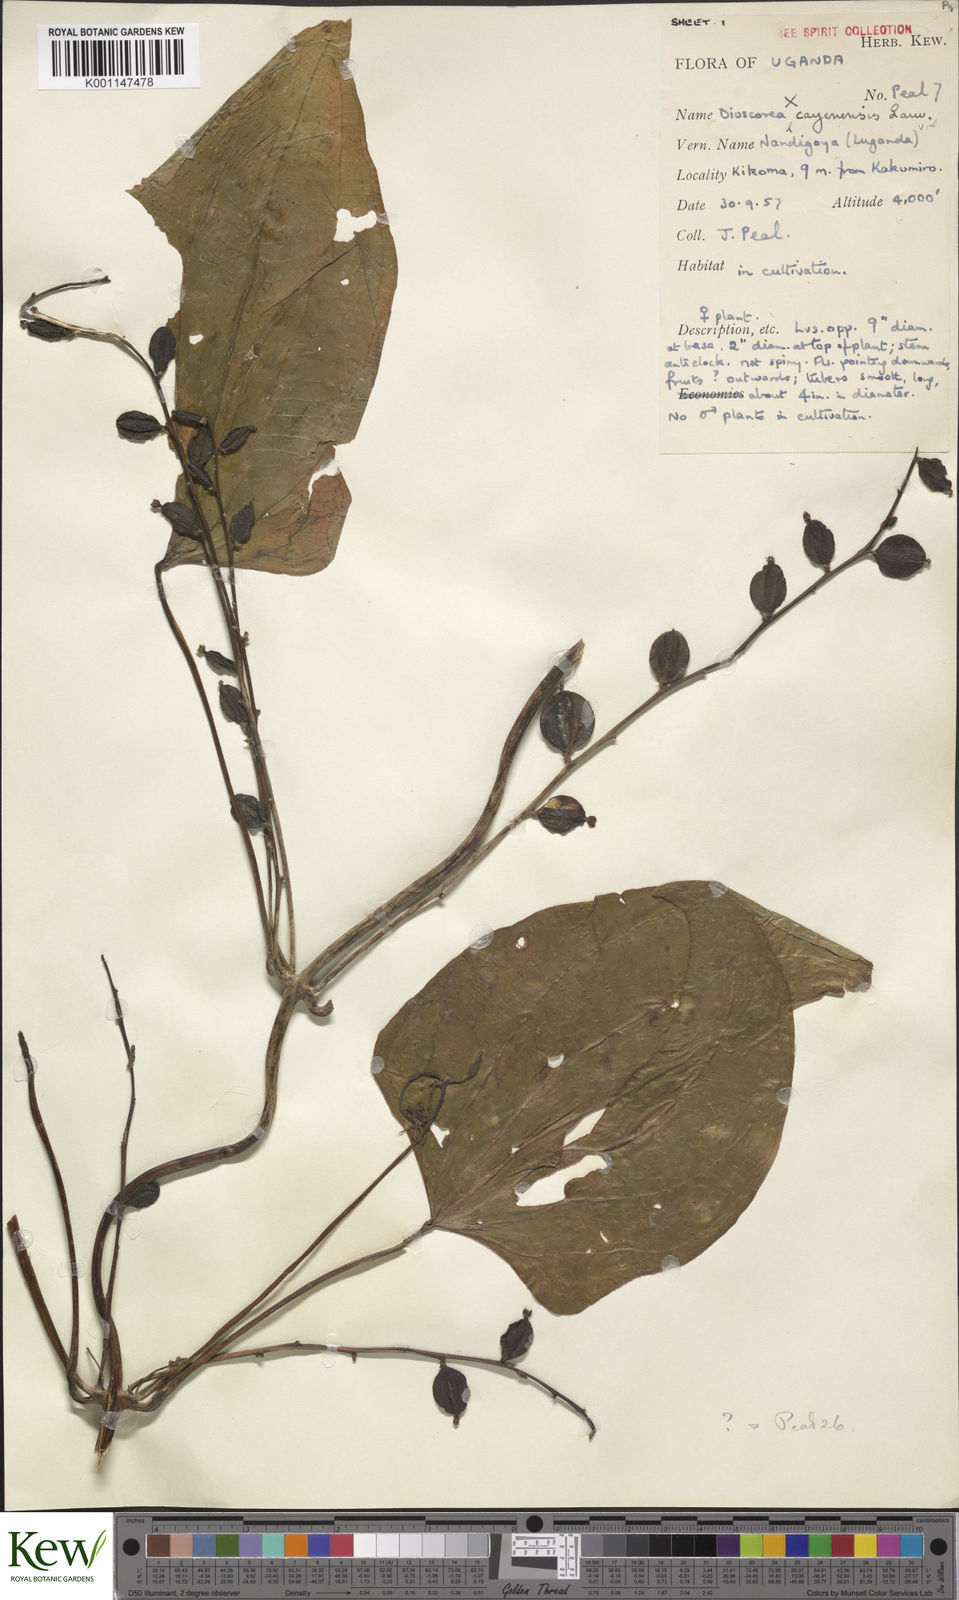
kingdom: Plantae
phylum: Tracheophyta
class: Liliopsida
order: Dioscoreales
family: Dioscoreaceae
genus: Dioscorea
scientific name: Dioscorea
